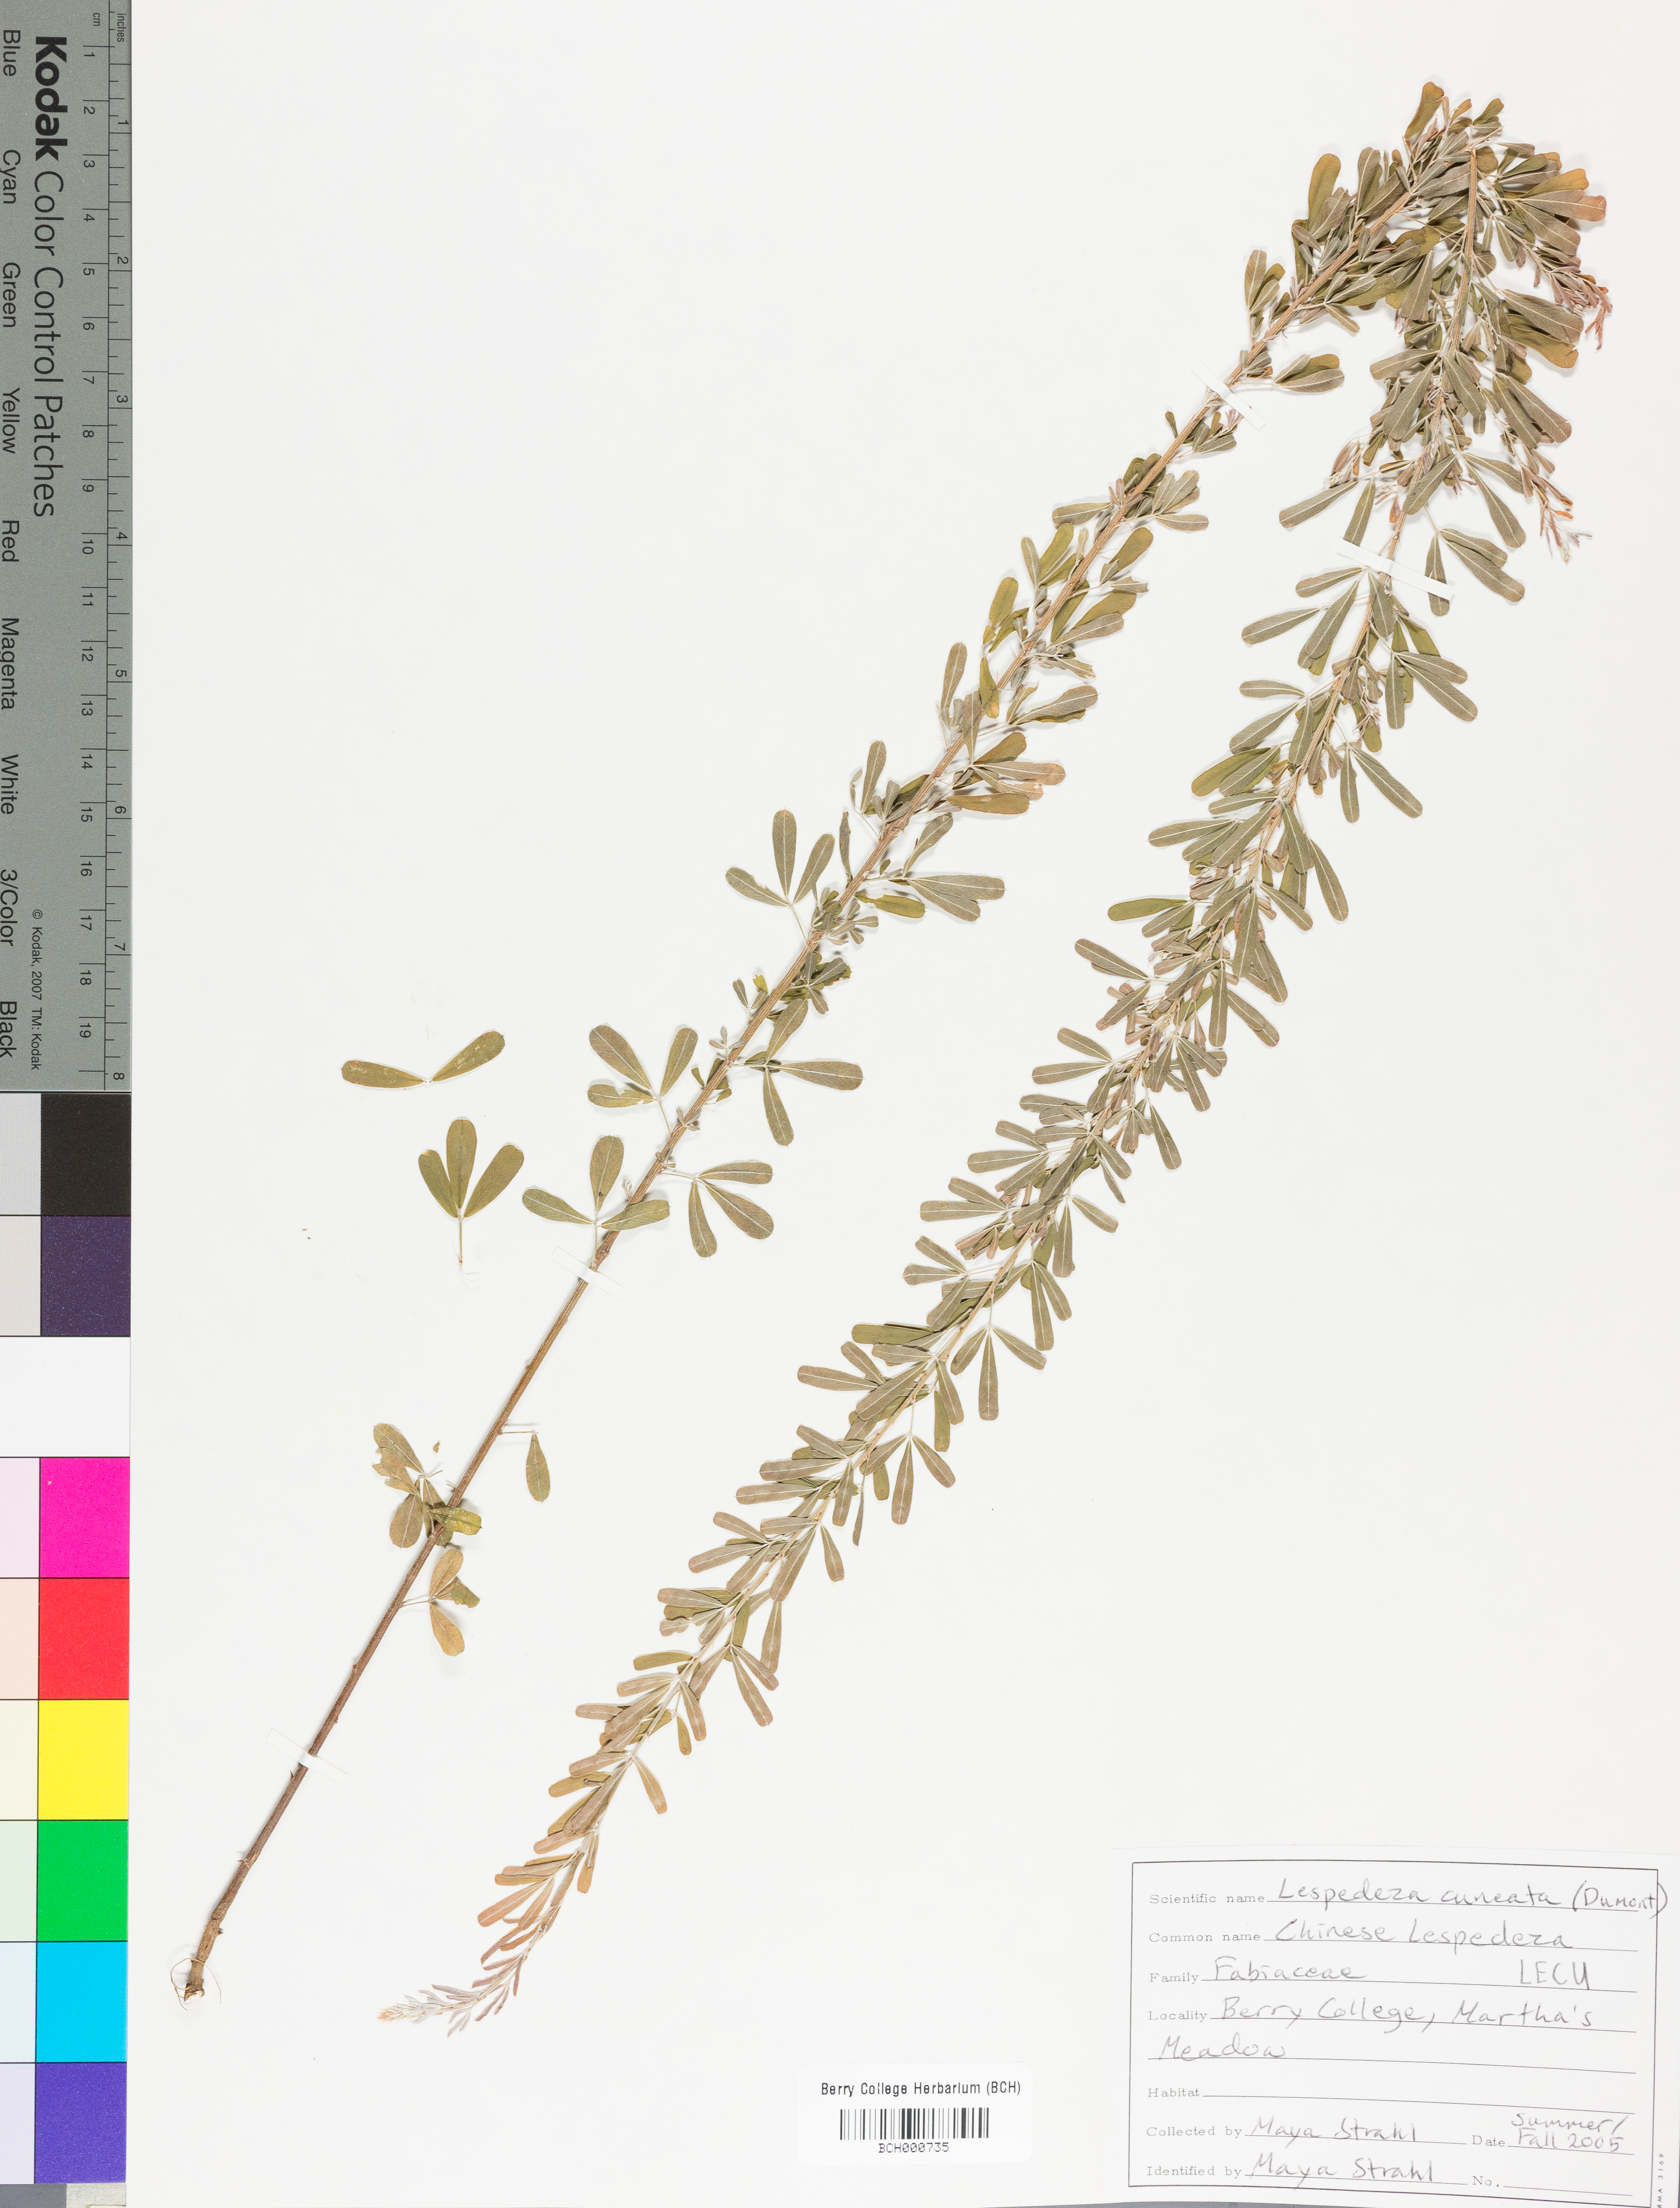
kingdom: Plantae
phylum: Tracheophyta
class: Magnoliopsida
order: Fabales
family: Fabaceae
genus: Lespedeza
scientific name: Lespedeza cuneata
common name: Chinese bush-clover
